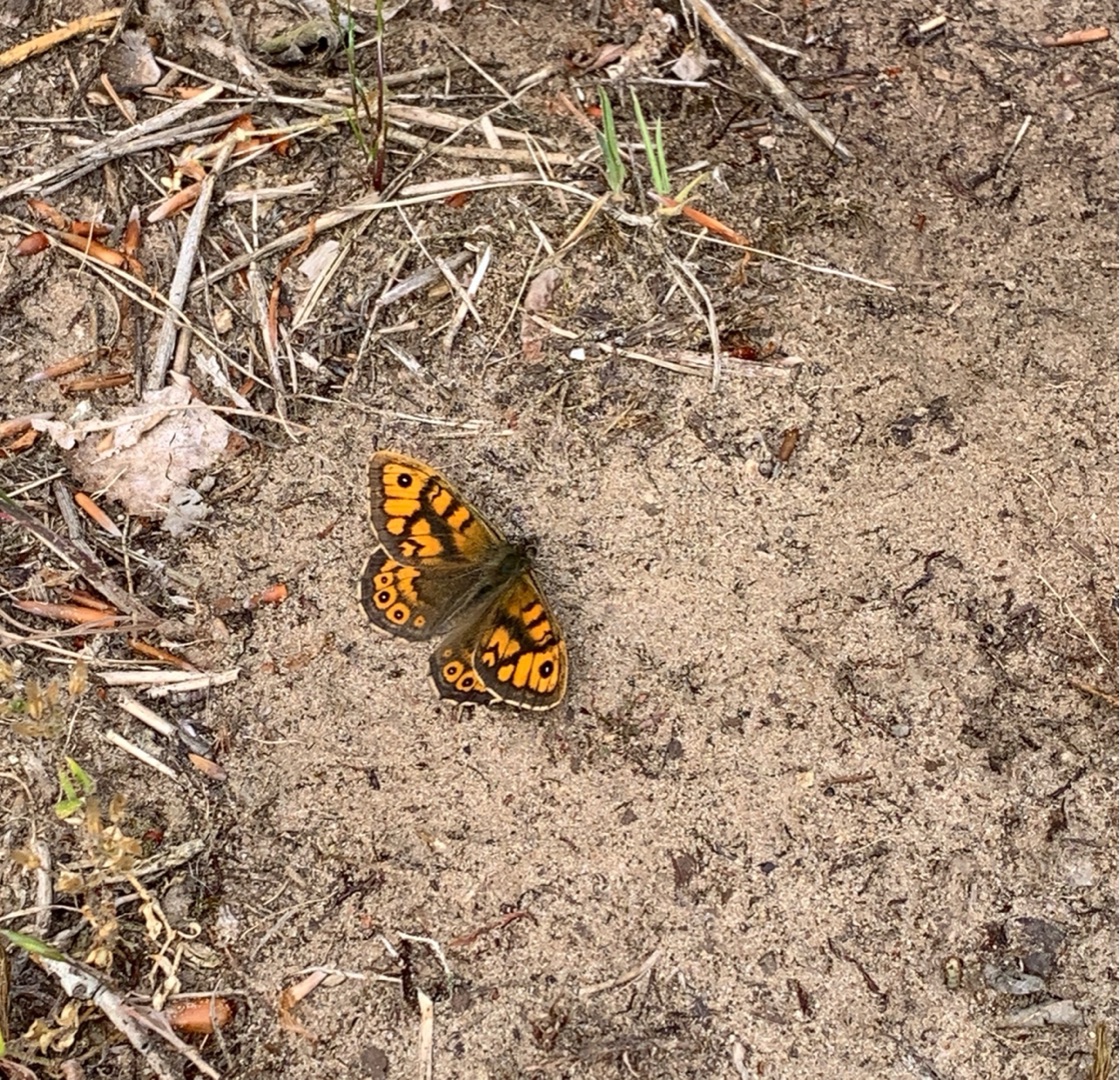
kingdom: Animalia
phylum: Arthropoda
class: Insecta
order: Lepidoptera
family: Nymphalidae
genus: Pararge
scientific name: Pararge Lasiommata megera
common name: Vejrandøje
